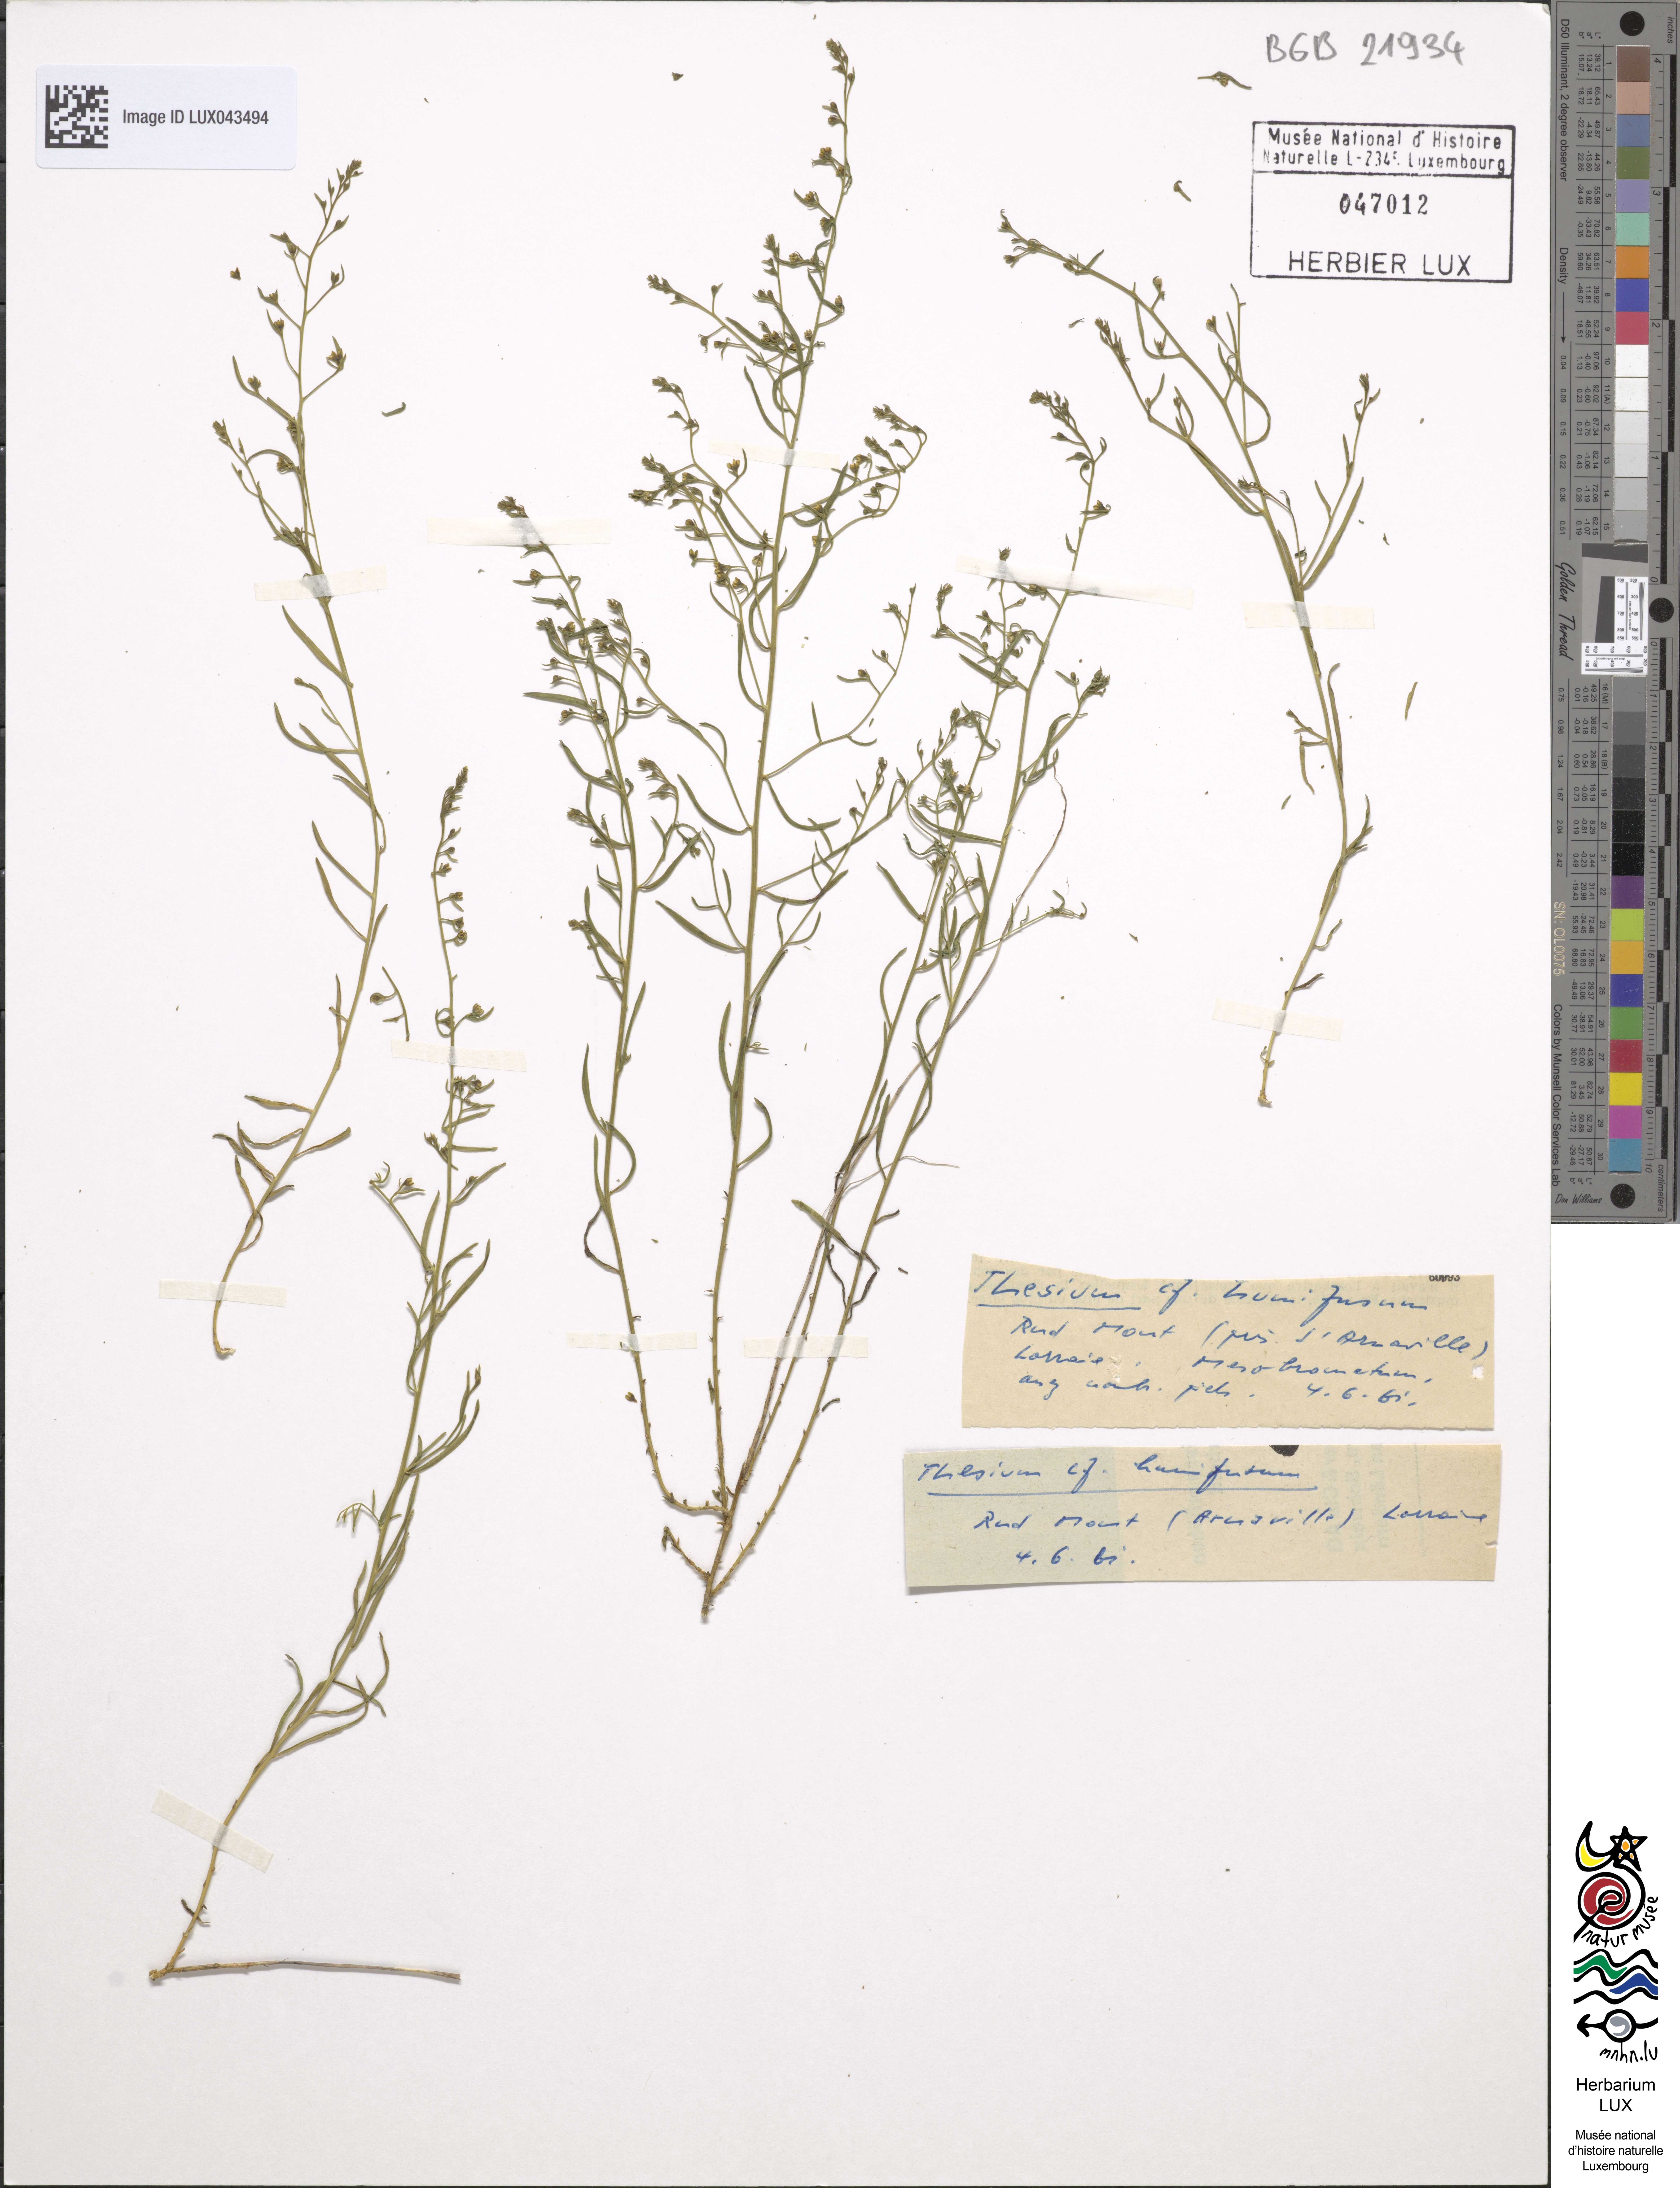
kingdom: Plantae
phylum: Tracheophyta
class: Magnoliopsida
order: Santalales
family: Thesiaceae
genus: Thesium
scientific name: Thesium hispanicum
